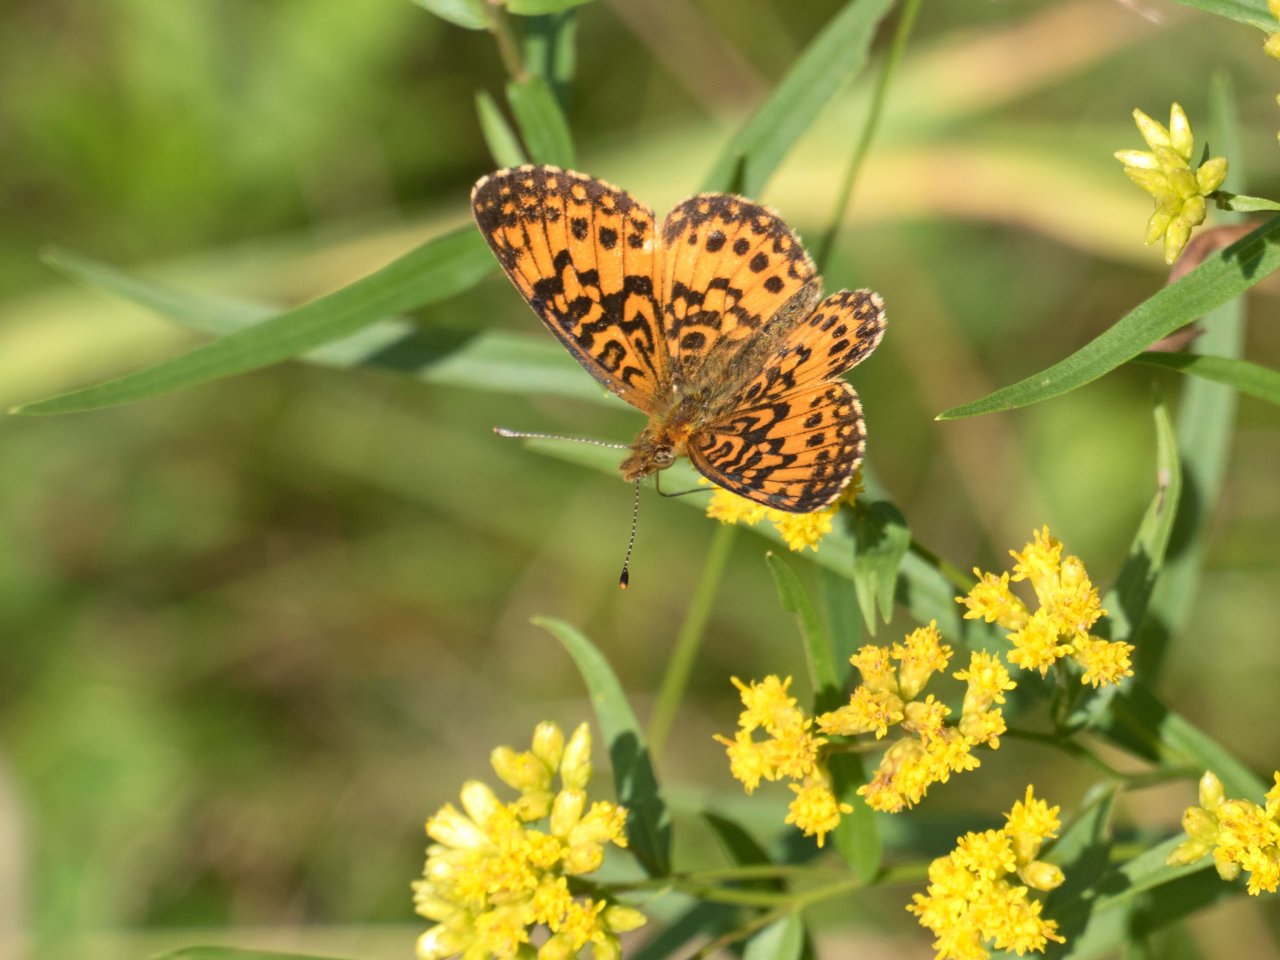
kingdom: Animalia
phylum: Arthropoda
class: Insecta
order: Lepidoptera
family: Nymphalidae
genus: Boloria
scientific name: Boloria selene
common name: Silver-bordered Fritillary
